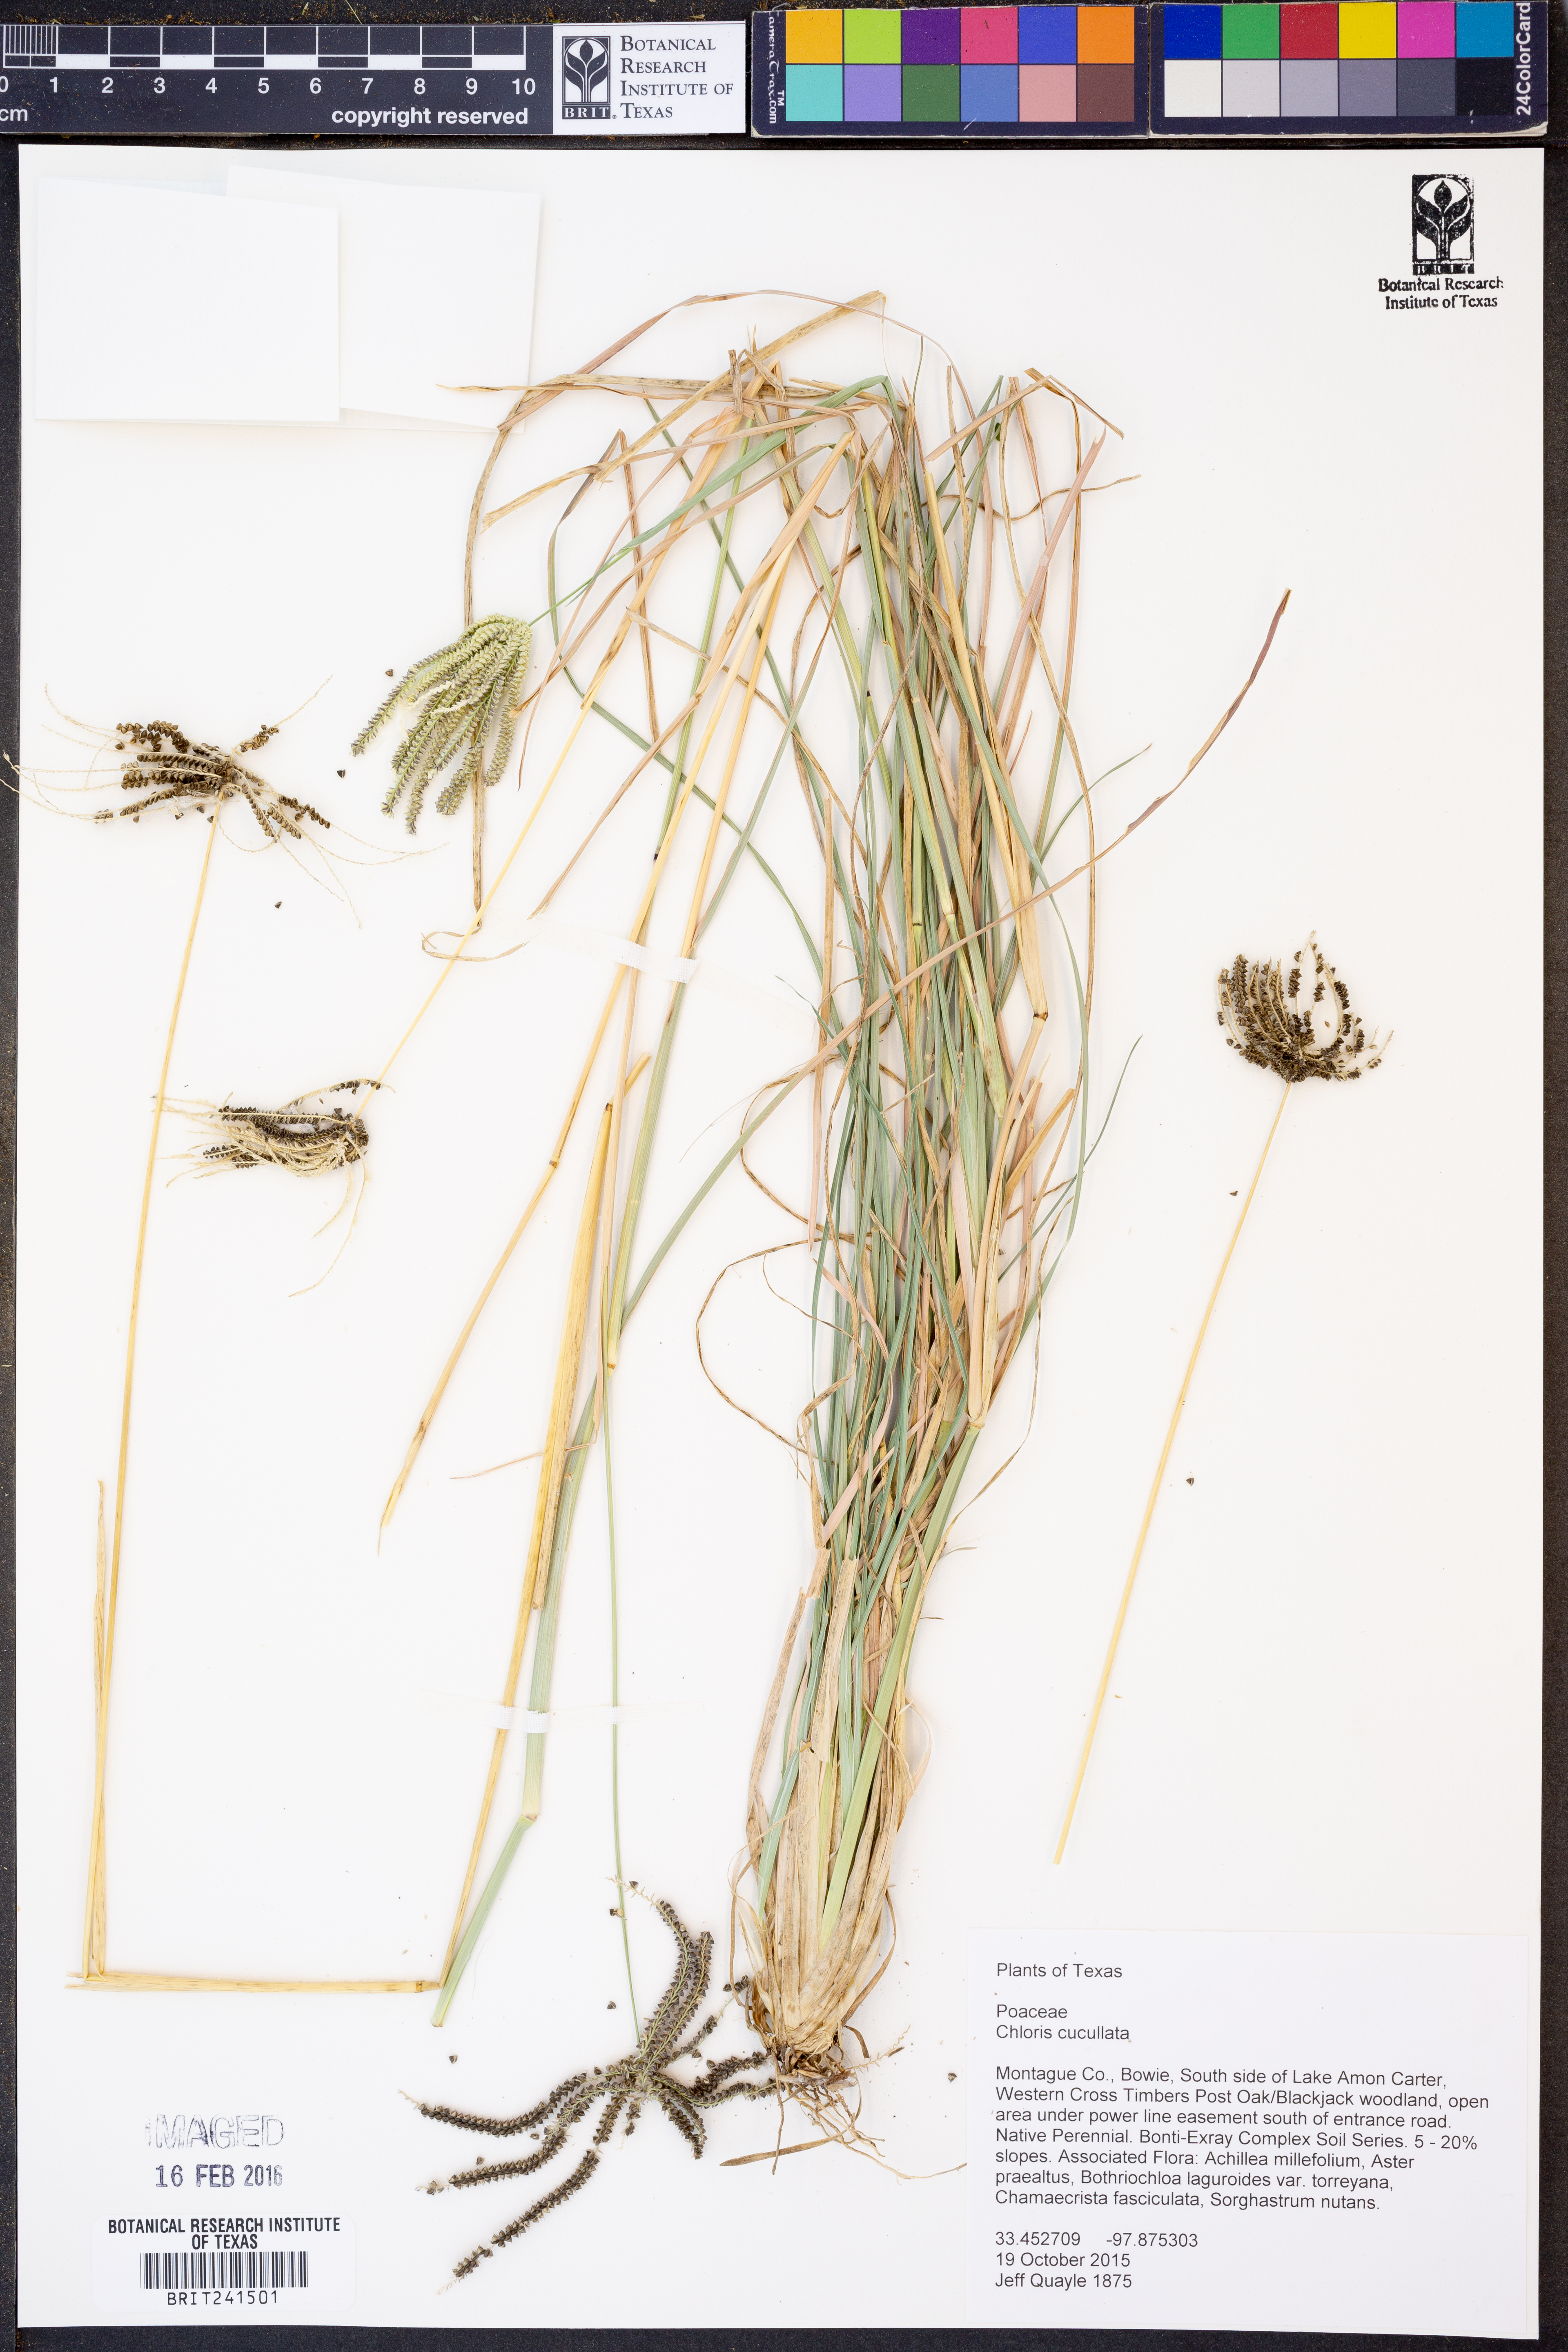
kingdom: Plantae
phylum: Tracheophyta
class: Liliopsida
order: Poales
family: Poaceae
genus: Chloris
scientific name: Chloris cucullata
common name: Hooded windmill grass
